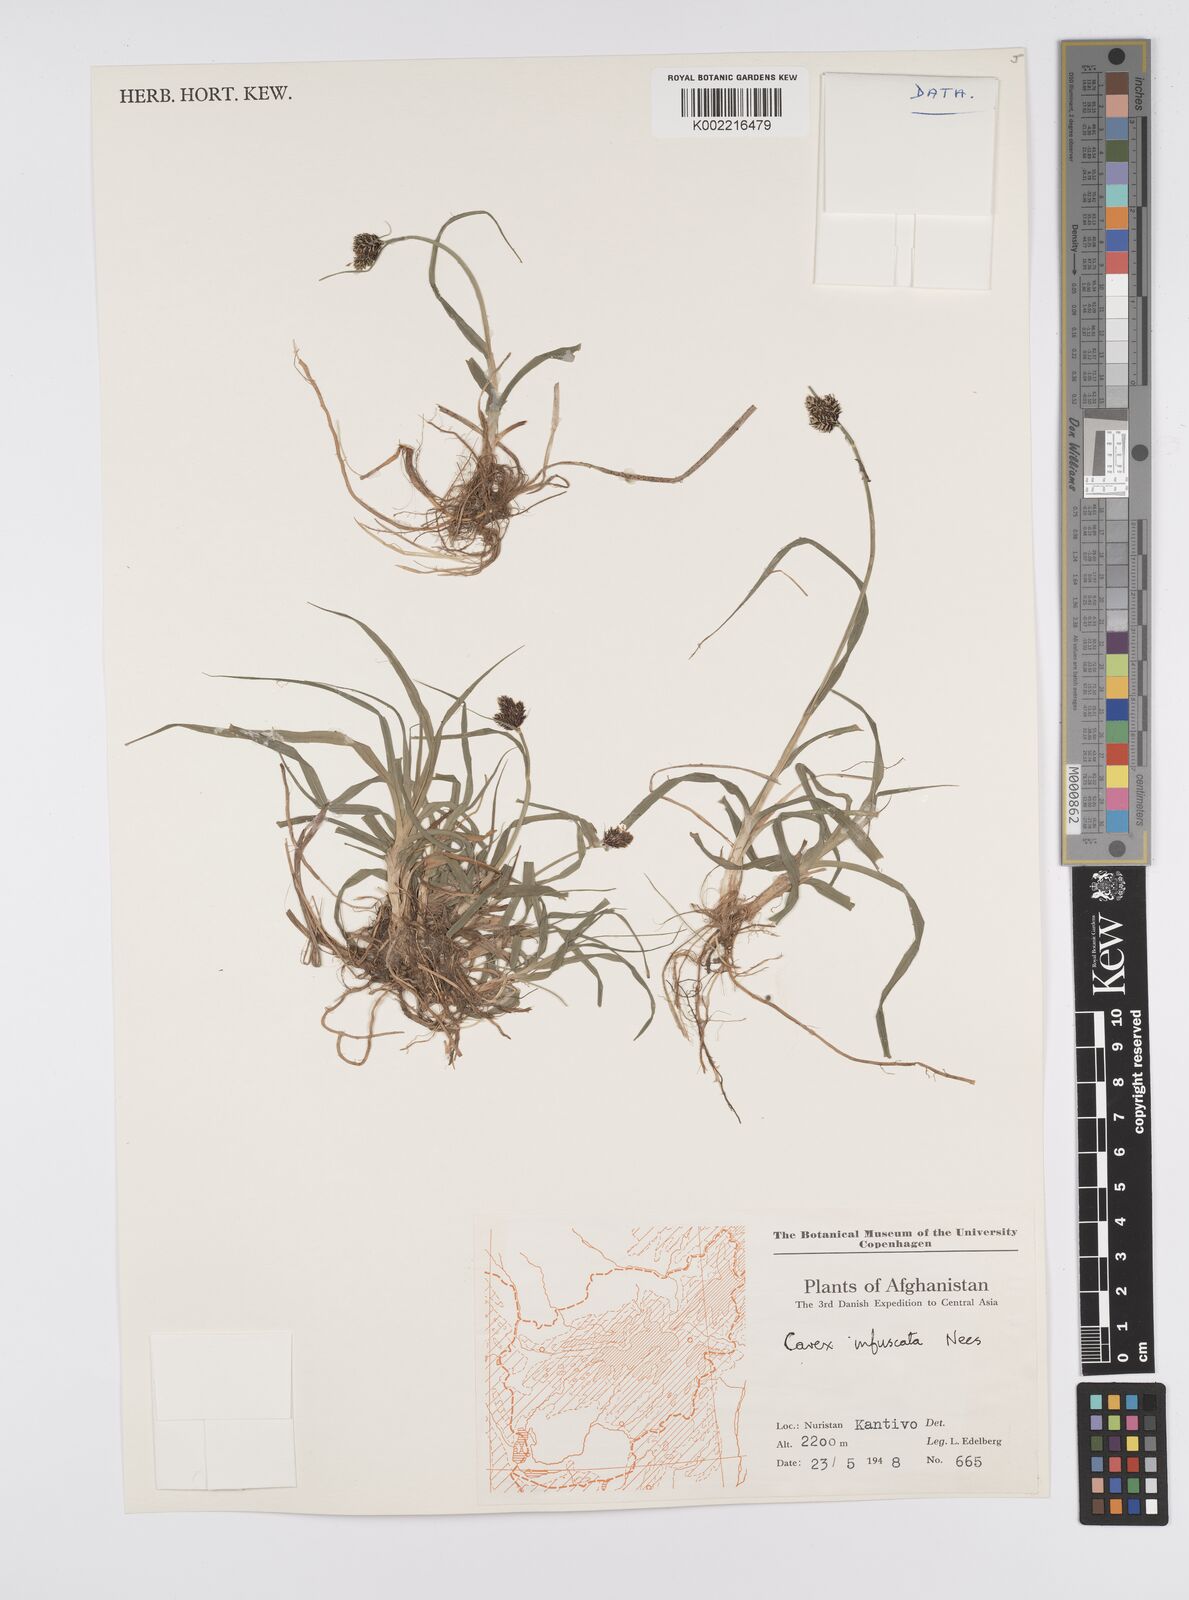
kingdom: Plantae
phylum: Tracheophyta
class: Liliopsida
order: Poales
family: Cyperaceae
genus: Carex
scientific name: Carex infuscata
